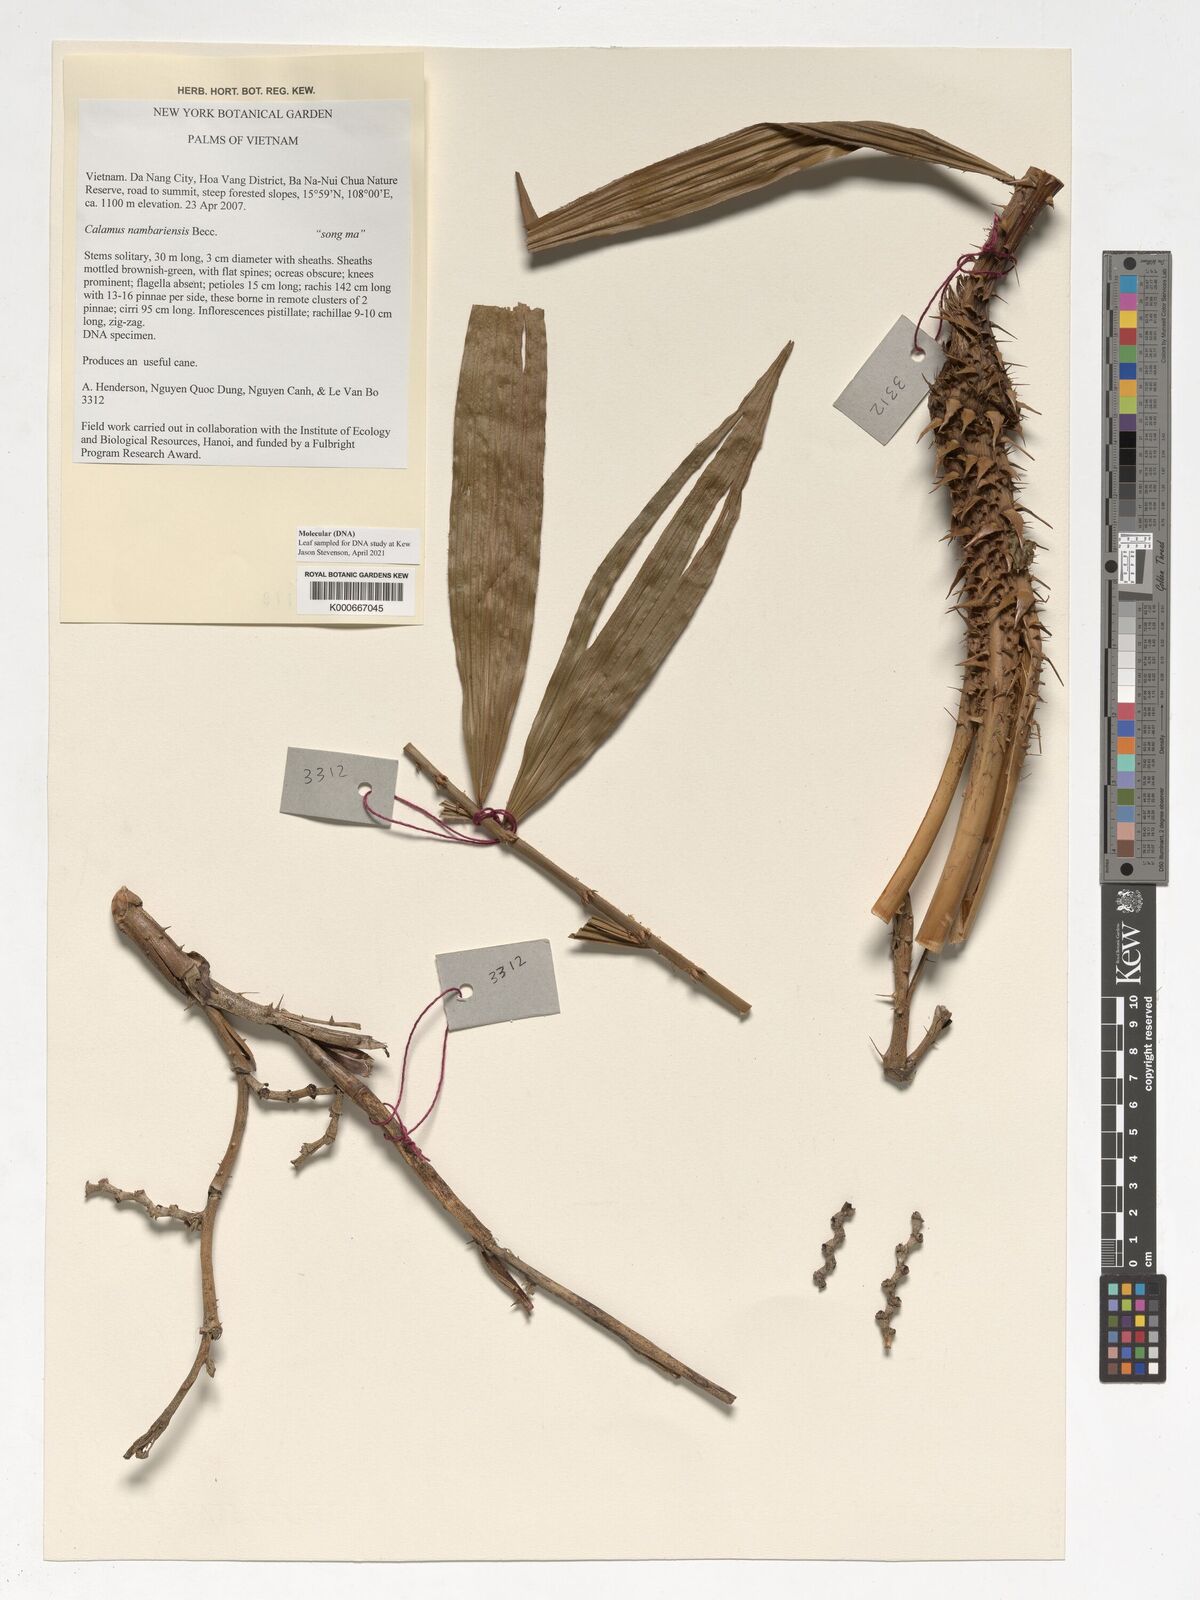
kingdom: Plantae
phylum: Tracheophyta
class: Liliopsida
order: Arecales
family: Arecaceae
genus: Calamus
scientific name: Calamus inermis
